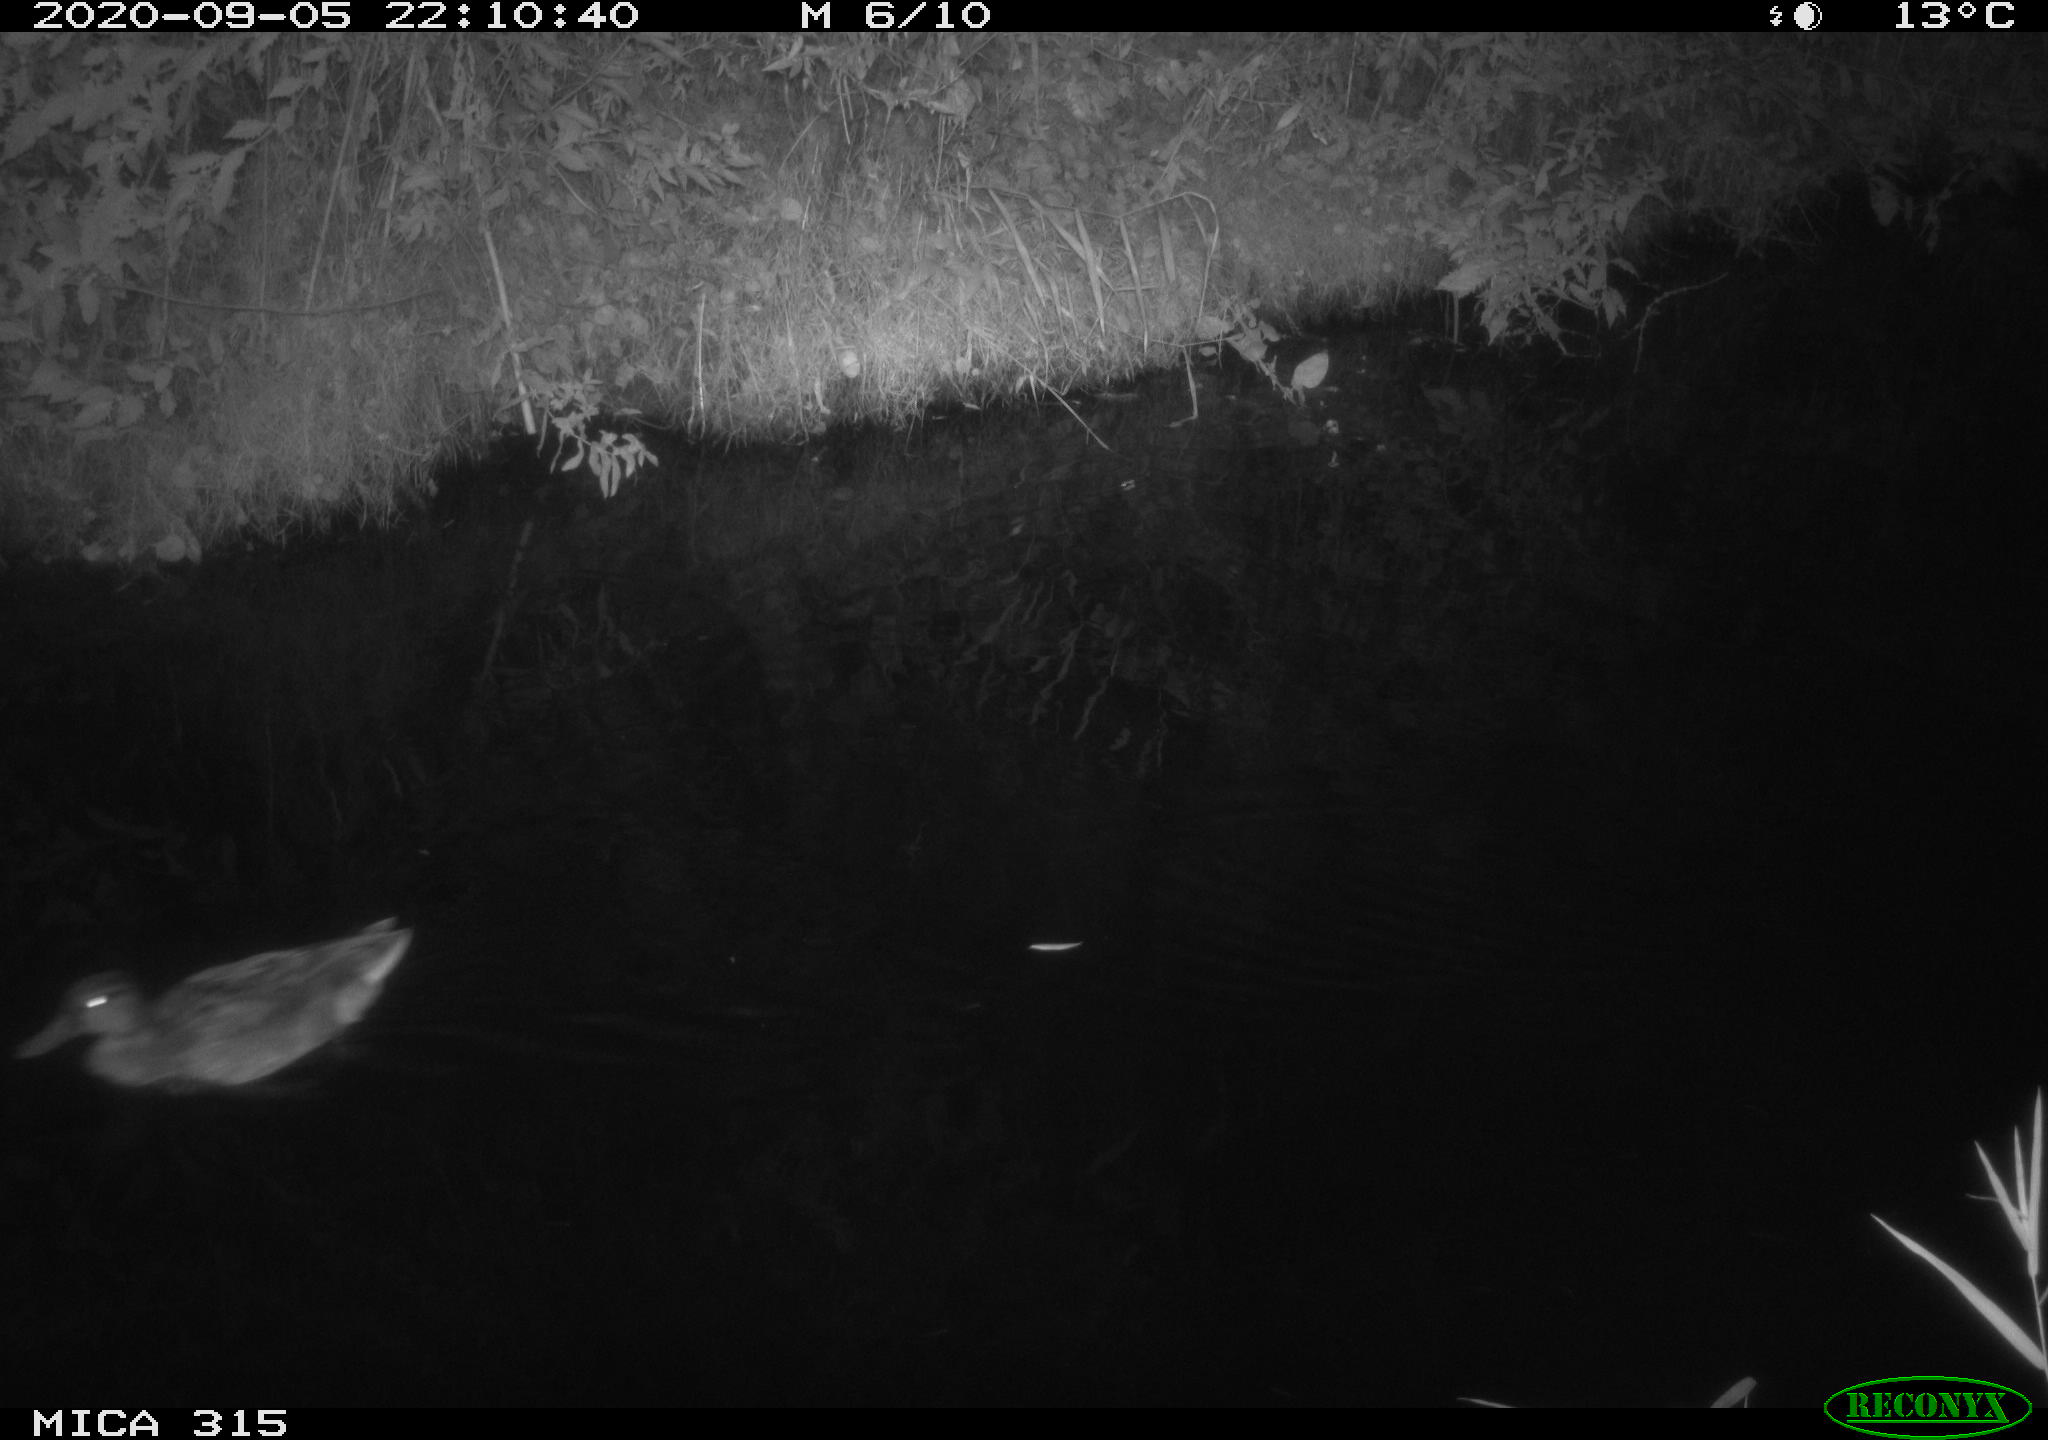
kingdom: Animalia
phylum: Chordata
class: Aves
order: Anseriformes
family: Anatidae
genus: Anas
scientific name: Anas platyrhynchos
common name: Mallard
